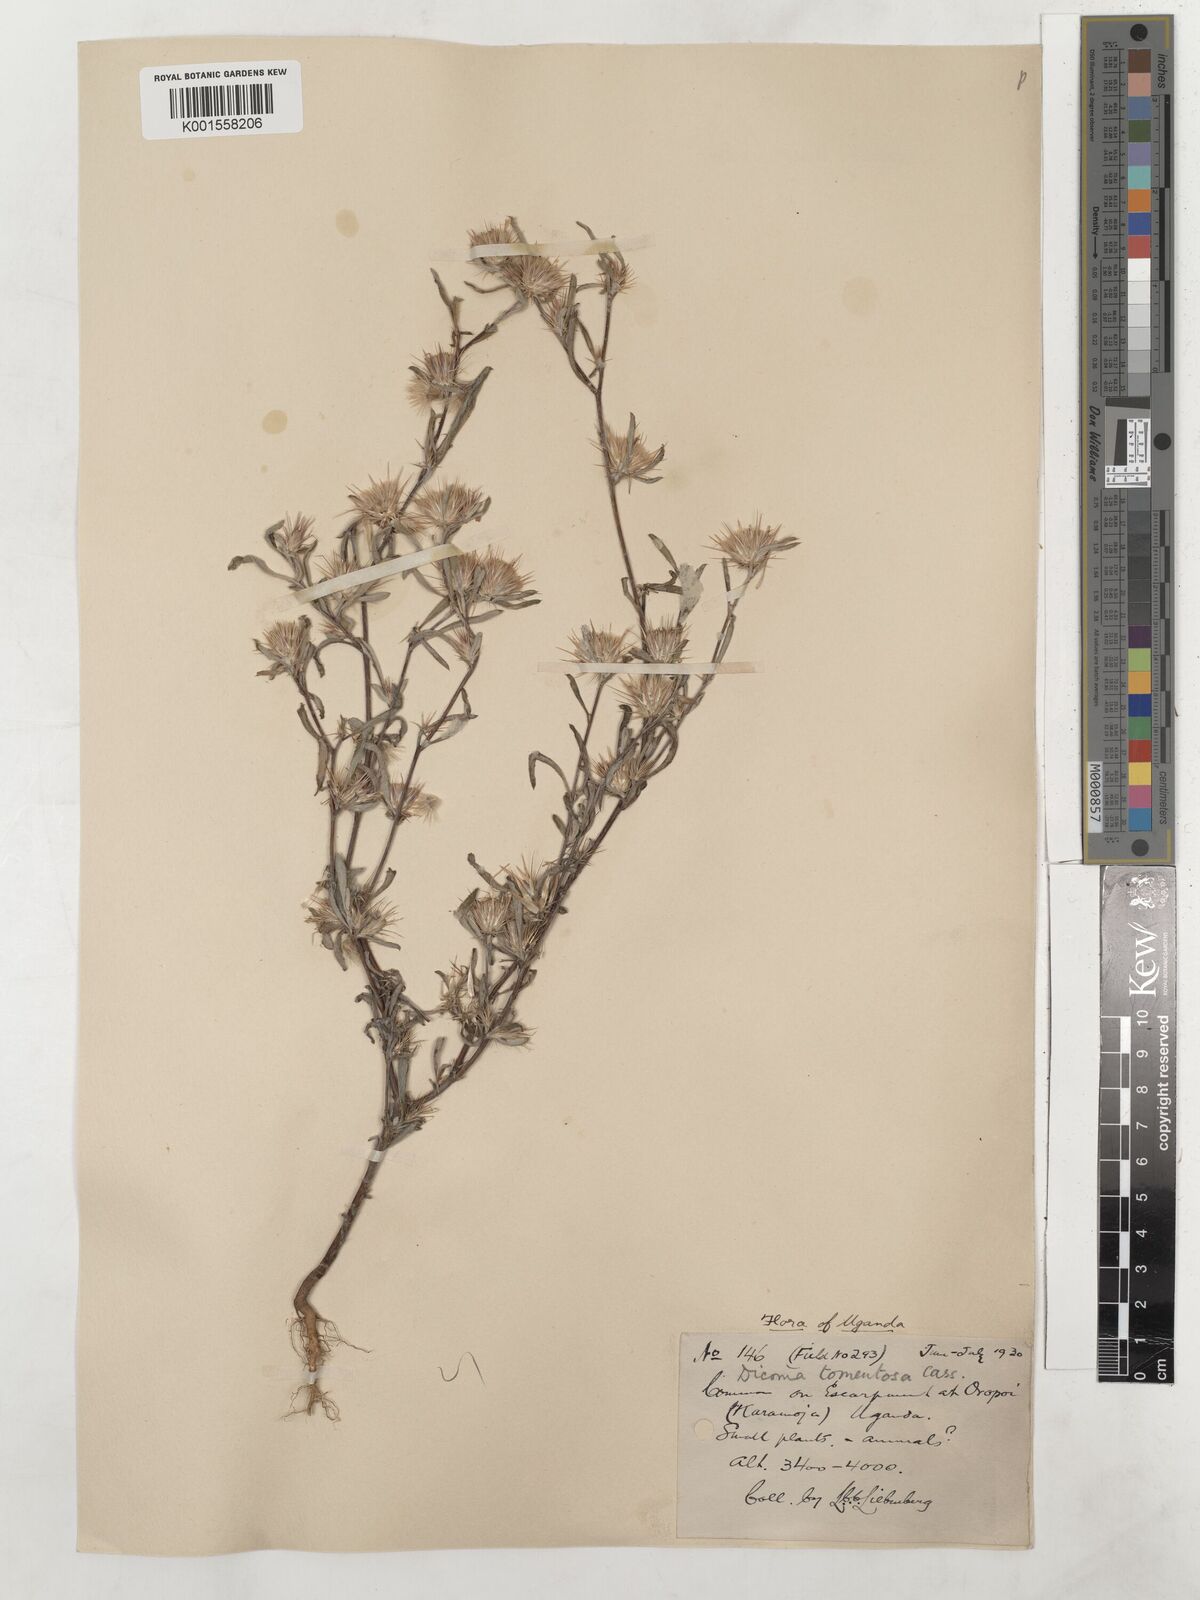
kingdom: Plantae
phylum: Tracheophyta
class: Magnoliopsida
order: Asterales
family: Asteraceae
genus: Dicoma
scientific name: Dicoma tomentosa
